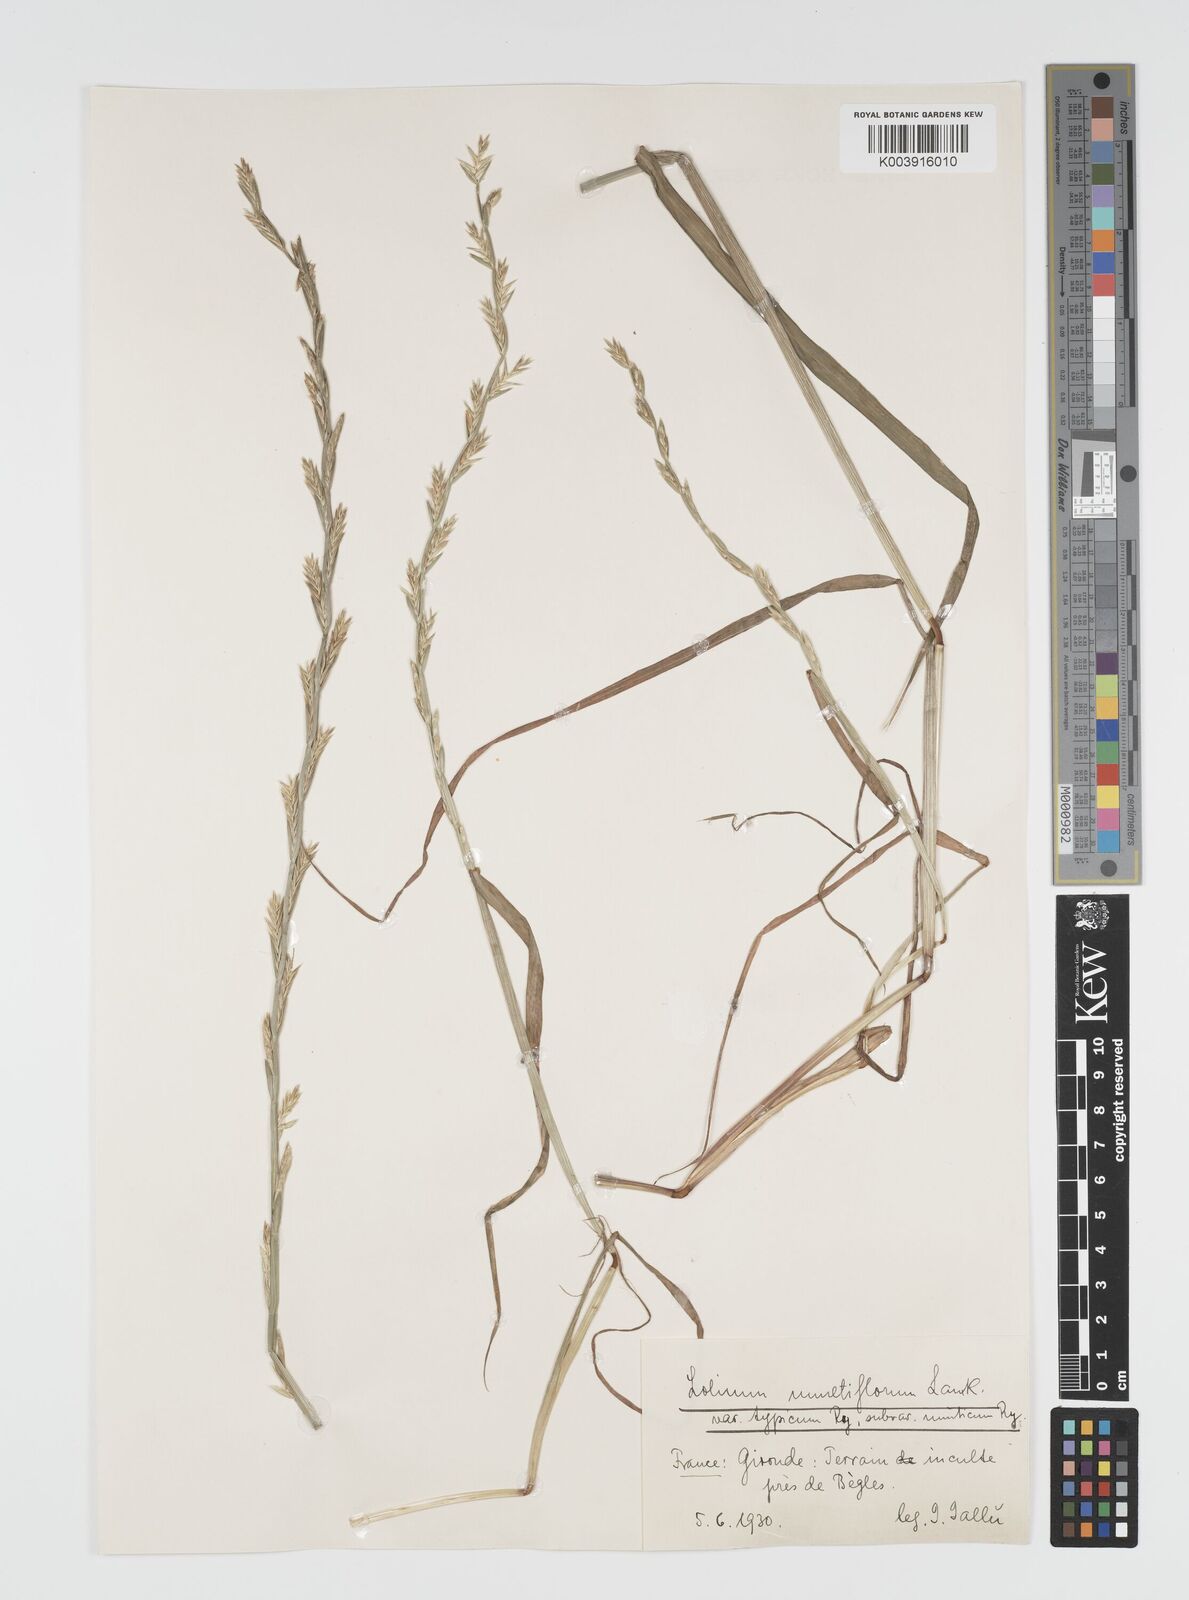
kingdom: Plantae
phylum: Tracheophyta
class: Liliopsida
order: Poales
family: Poaceae
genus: Lolium
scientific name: Lolium multiflorum
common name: Annual ryegrass
